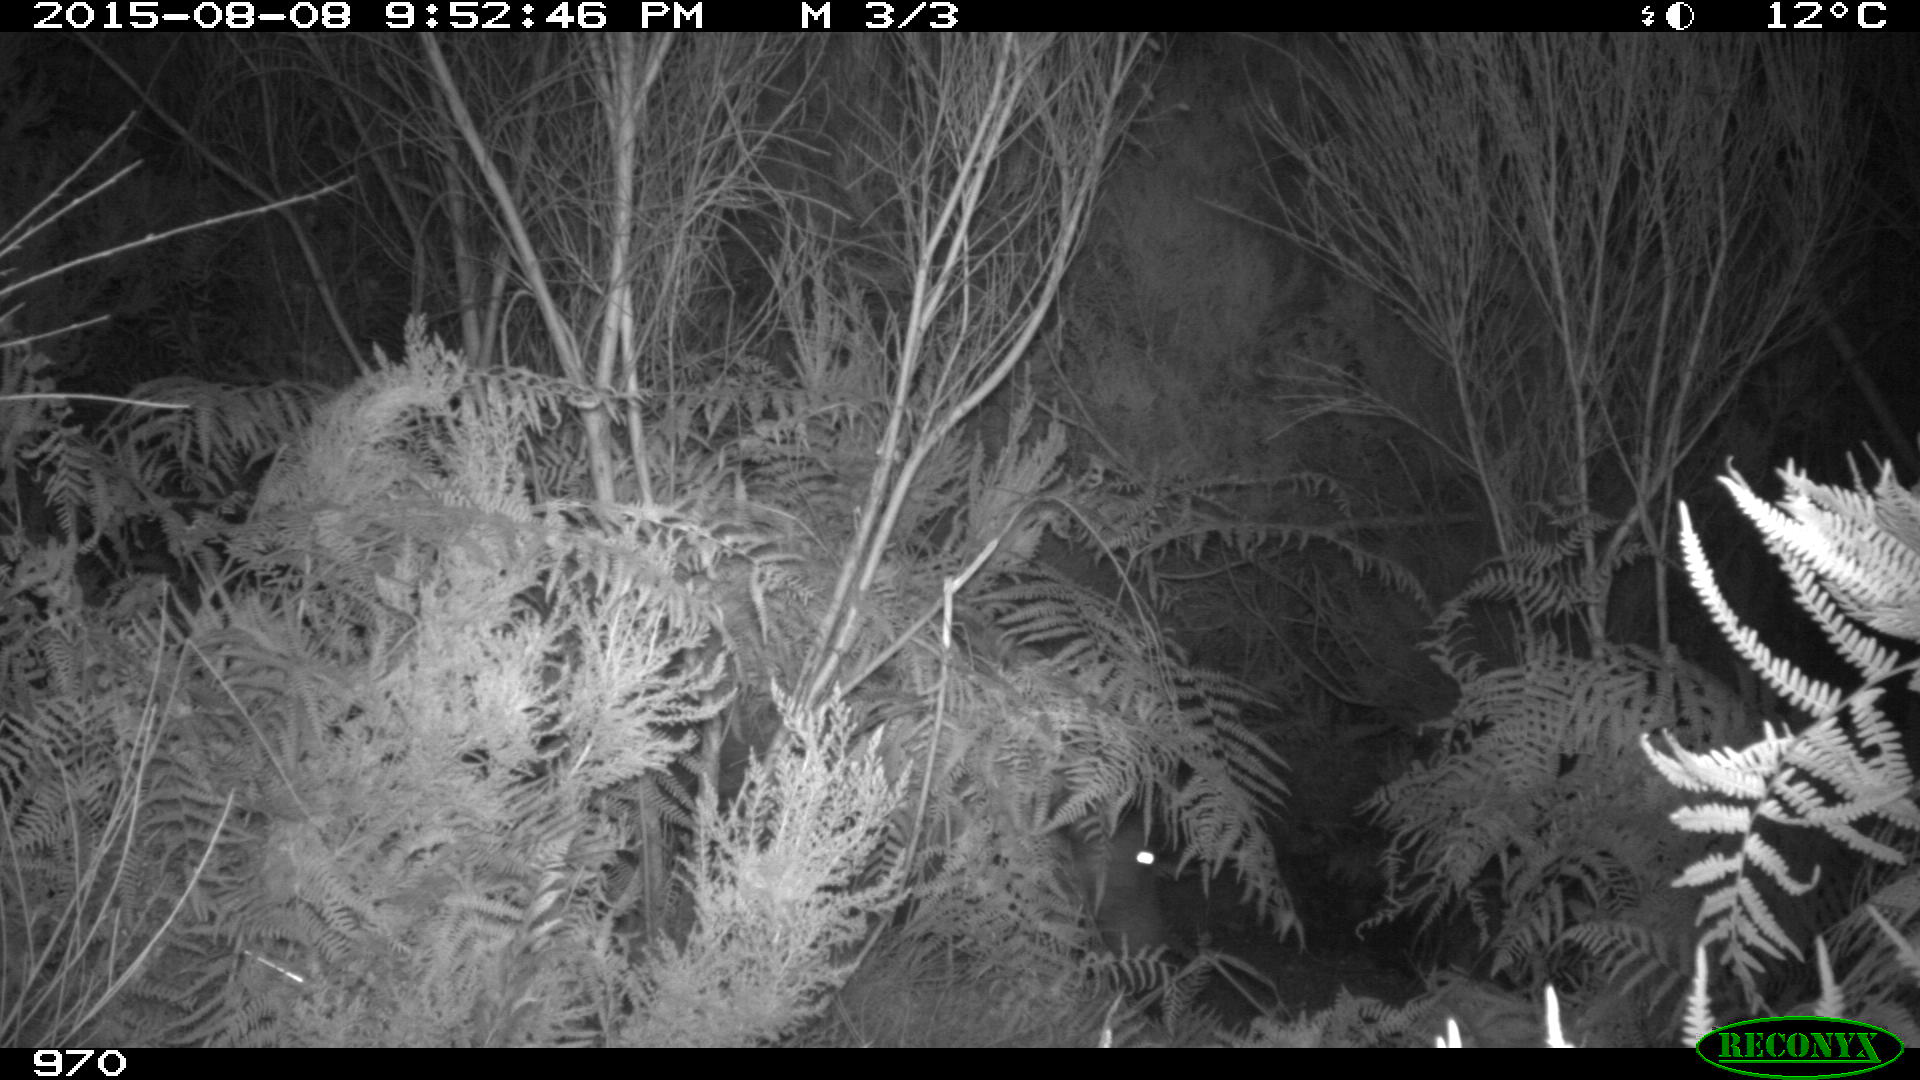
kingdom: Animalia
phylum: Chordata
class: Mammalia
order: Artiodactyla
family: Suidae
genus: Sus
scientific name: Sus scrofa
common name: Wild boar
